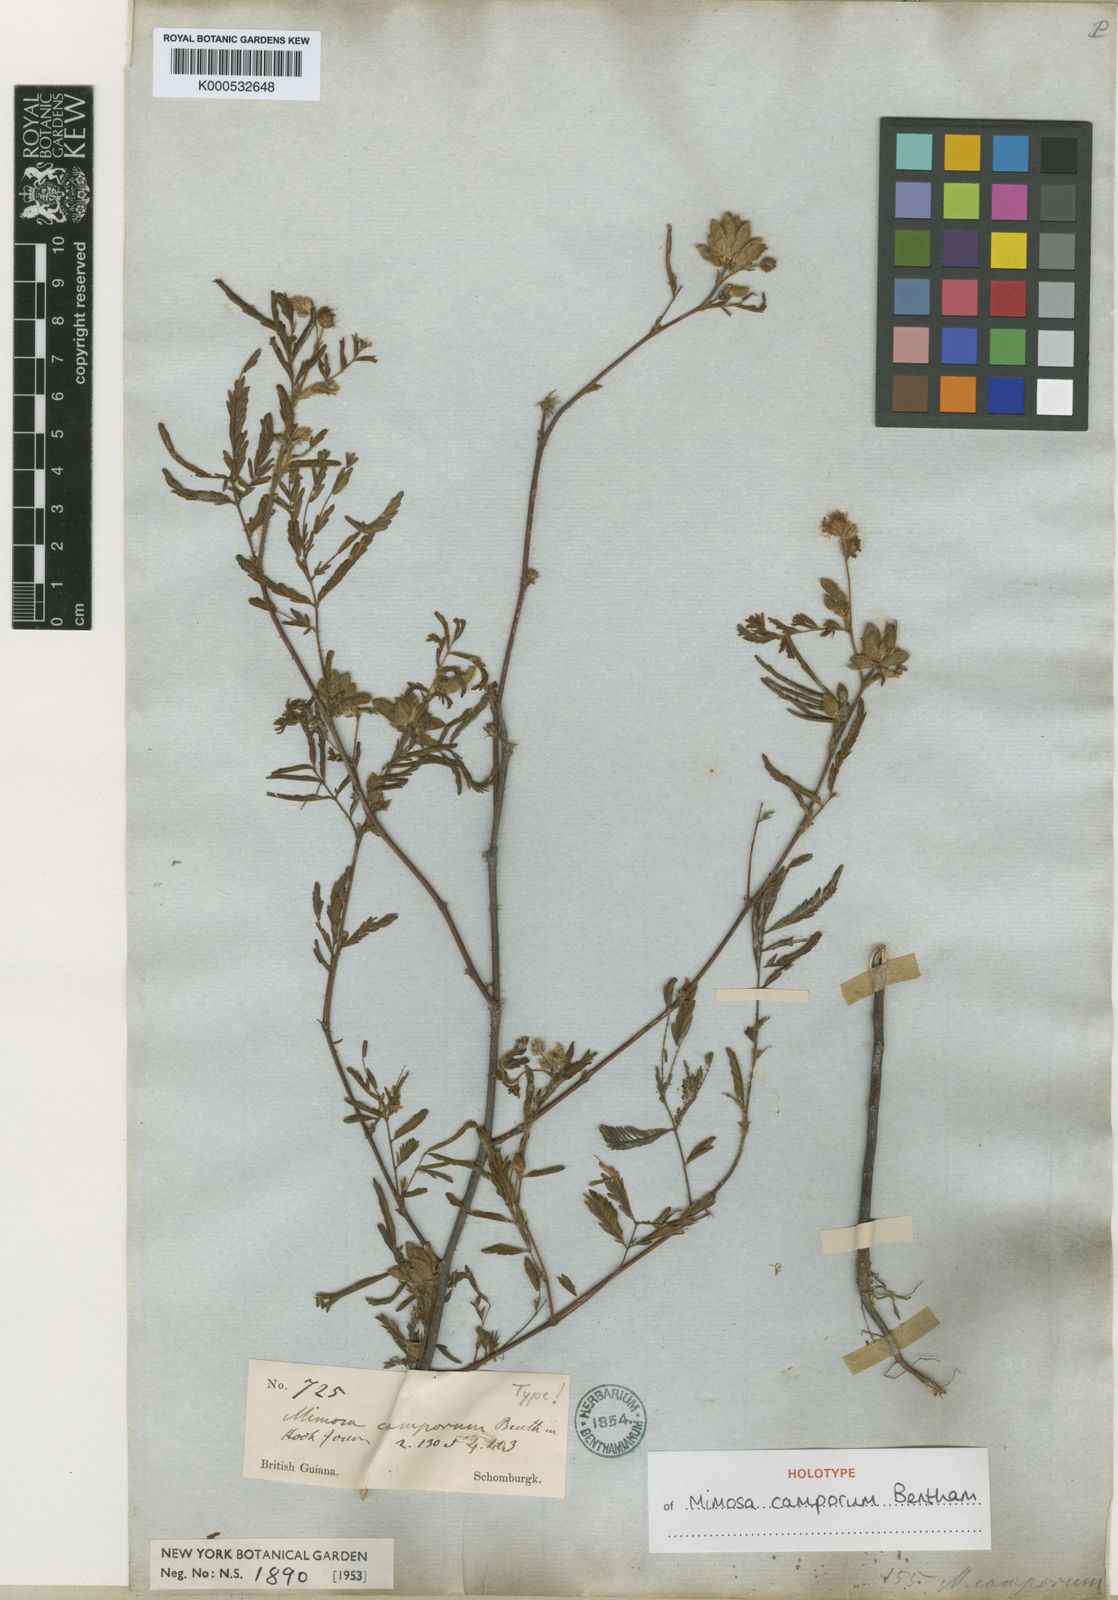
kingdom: Plantae
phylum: Tracheophyta
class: Magnoliopsida
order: Fabales
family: Fabaceae
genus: Mimosa
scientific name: Mimosa camporum
